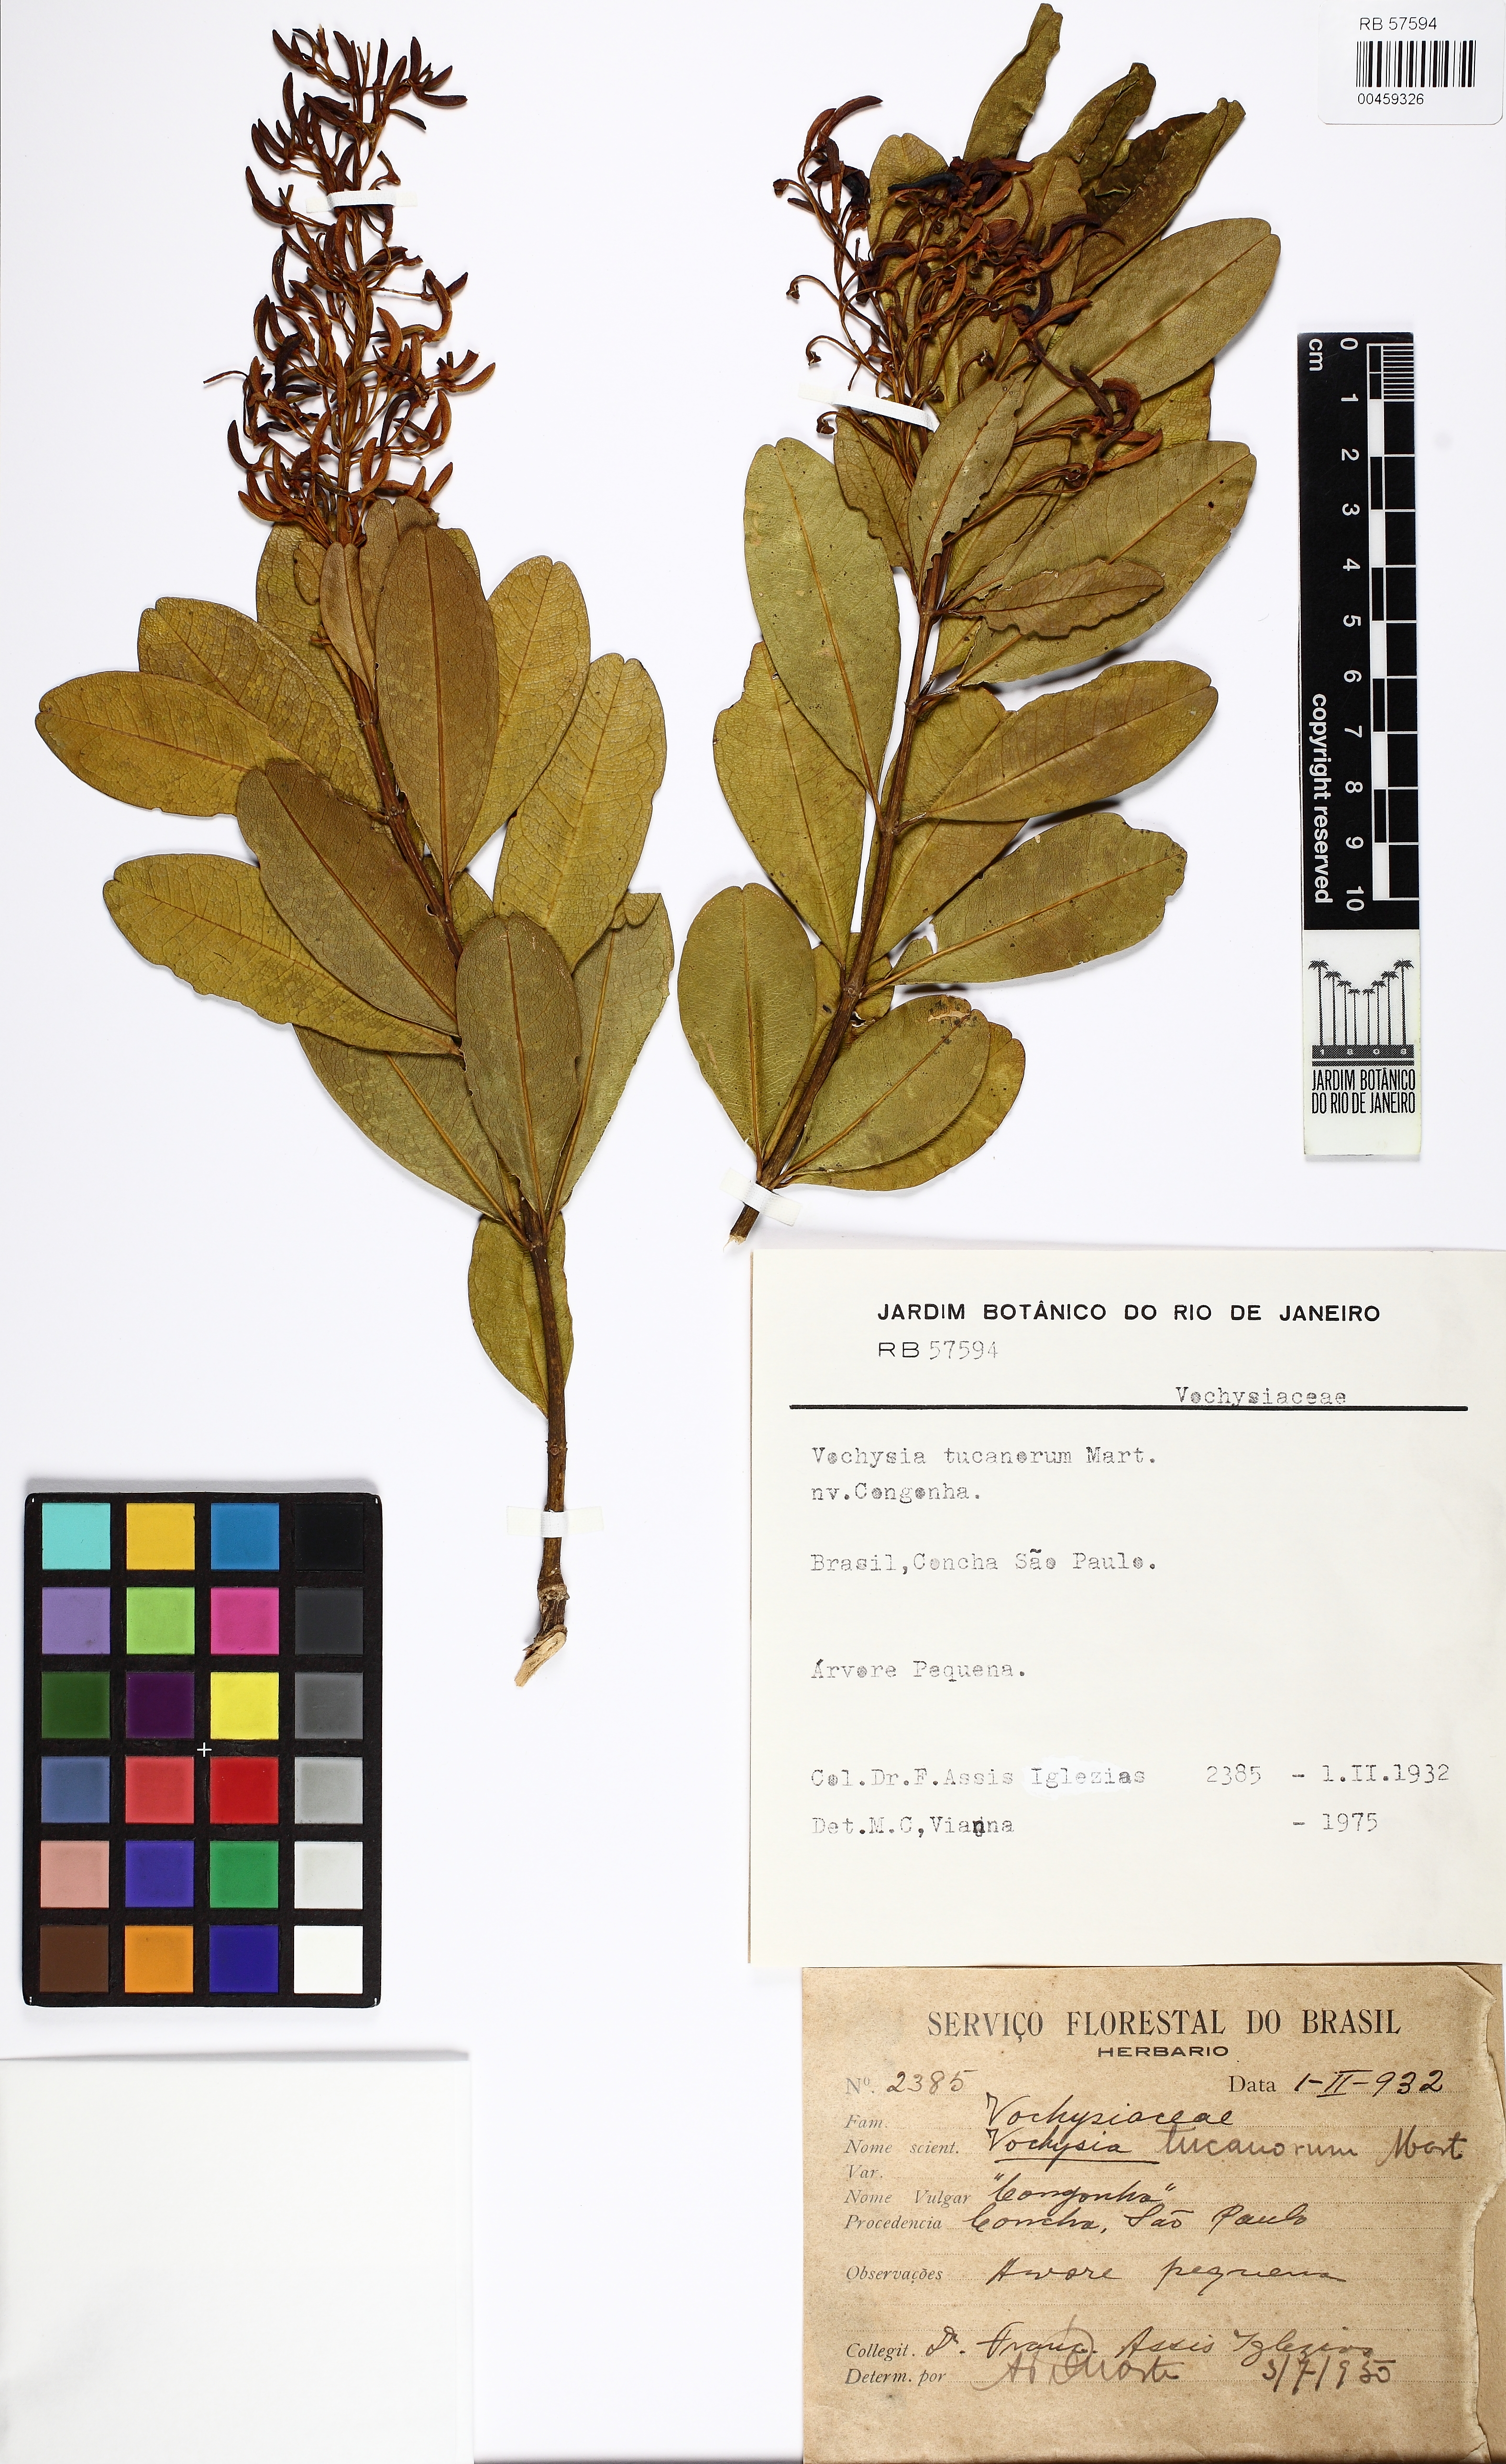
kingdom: Plantae
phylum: Tracheophyta
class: Magnoliopsida
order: Myrtales
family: Vochysiaceae
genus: Vochysia
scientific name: Vochysia tucanorum
